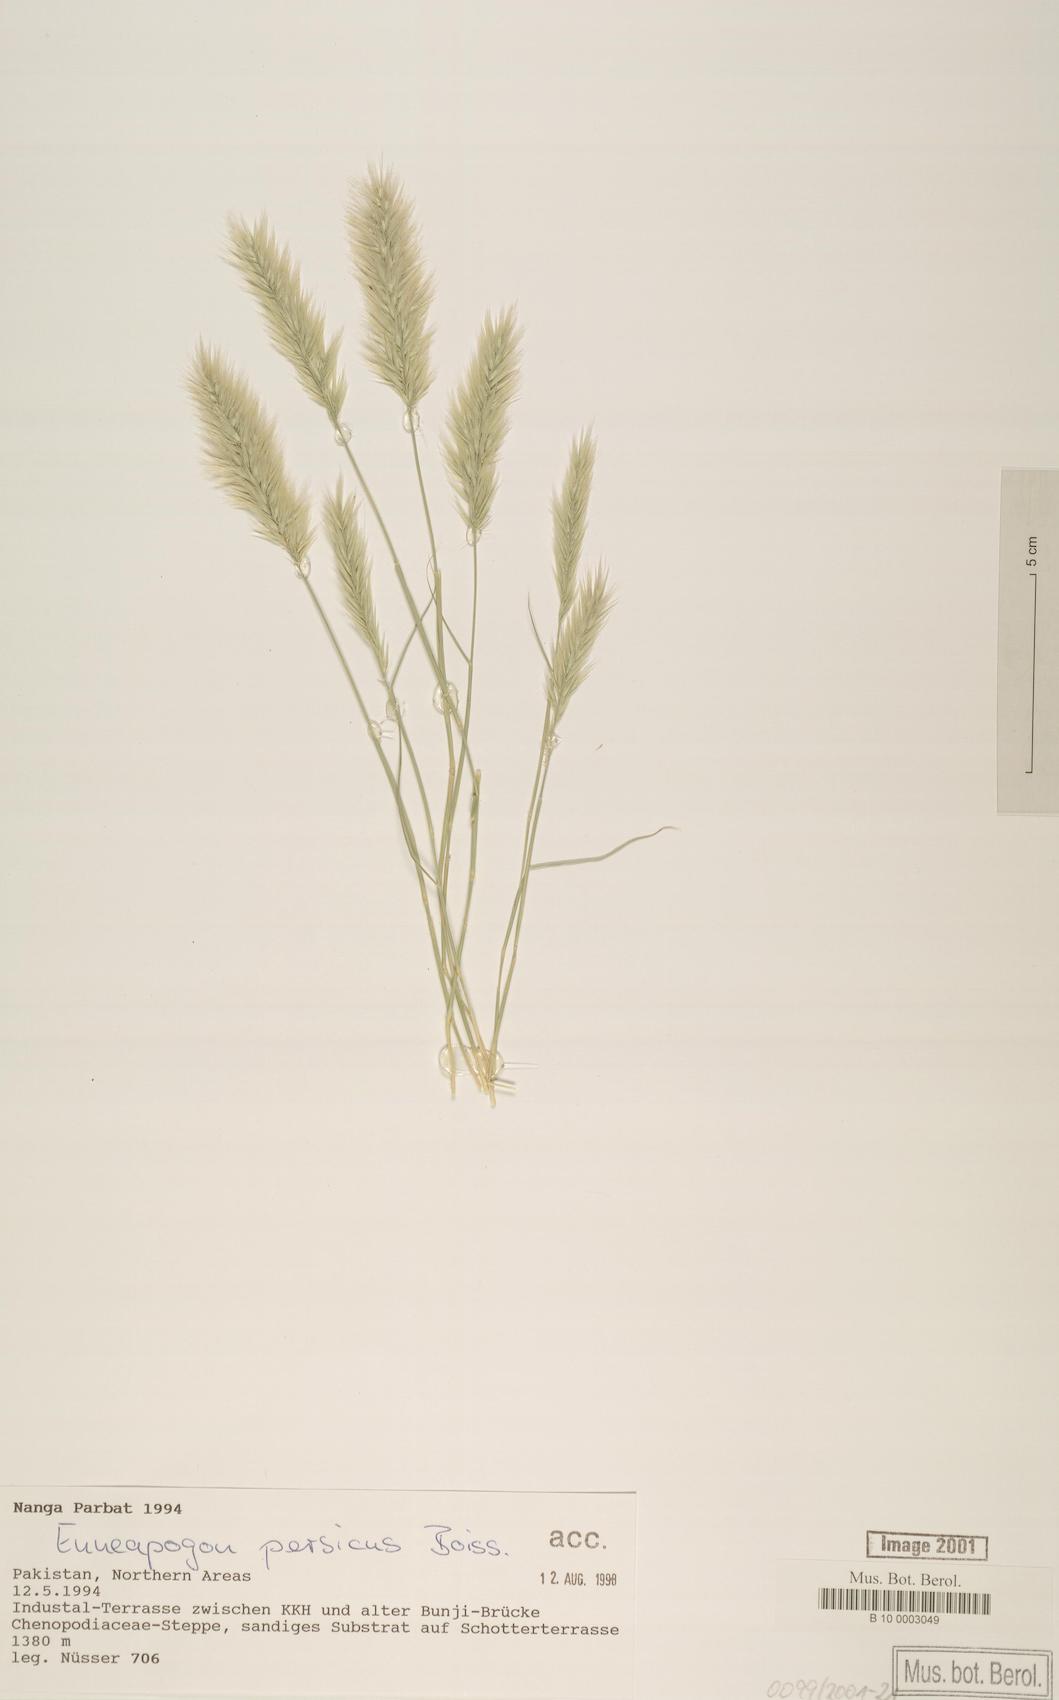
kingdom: Plantae
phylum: Tracheophyta
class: Liliopsida
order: Poales
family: Poaceae
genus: Enneapogon
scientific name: Enneapogon persicus
